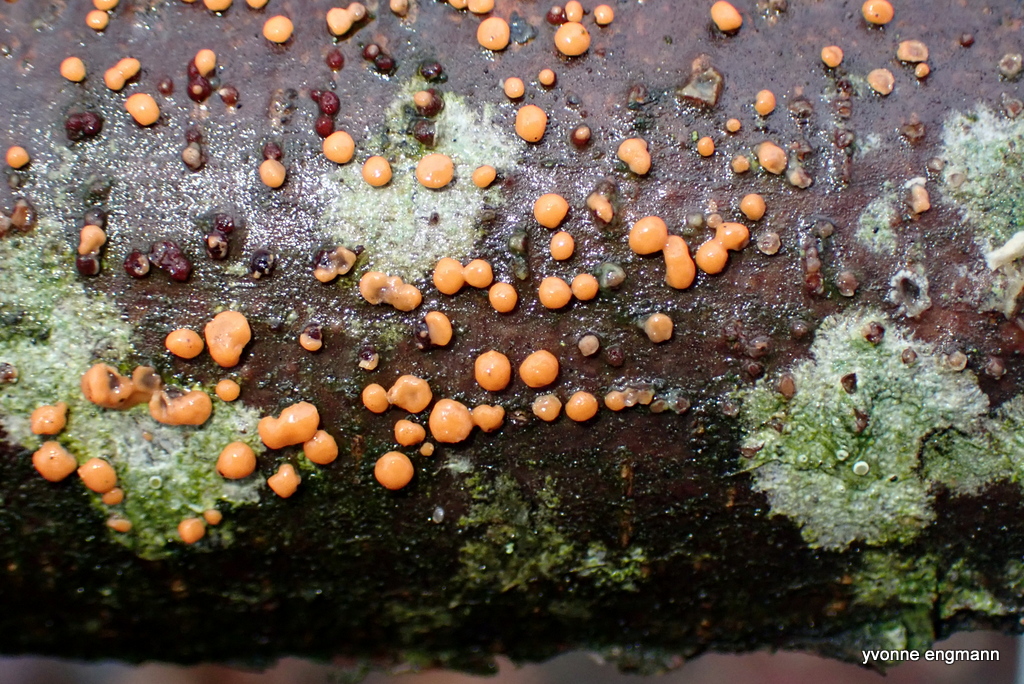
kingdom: Fungi
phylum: Ascomycota
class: Sordariomycetes
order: Hypocreales
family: Nectriaceae
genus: Nectria
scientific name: Nectria cinnabarina
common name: almindelig cinnobersvamp
